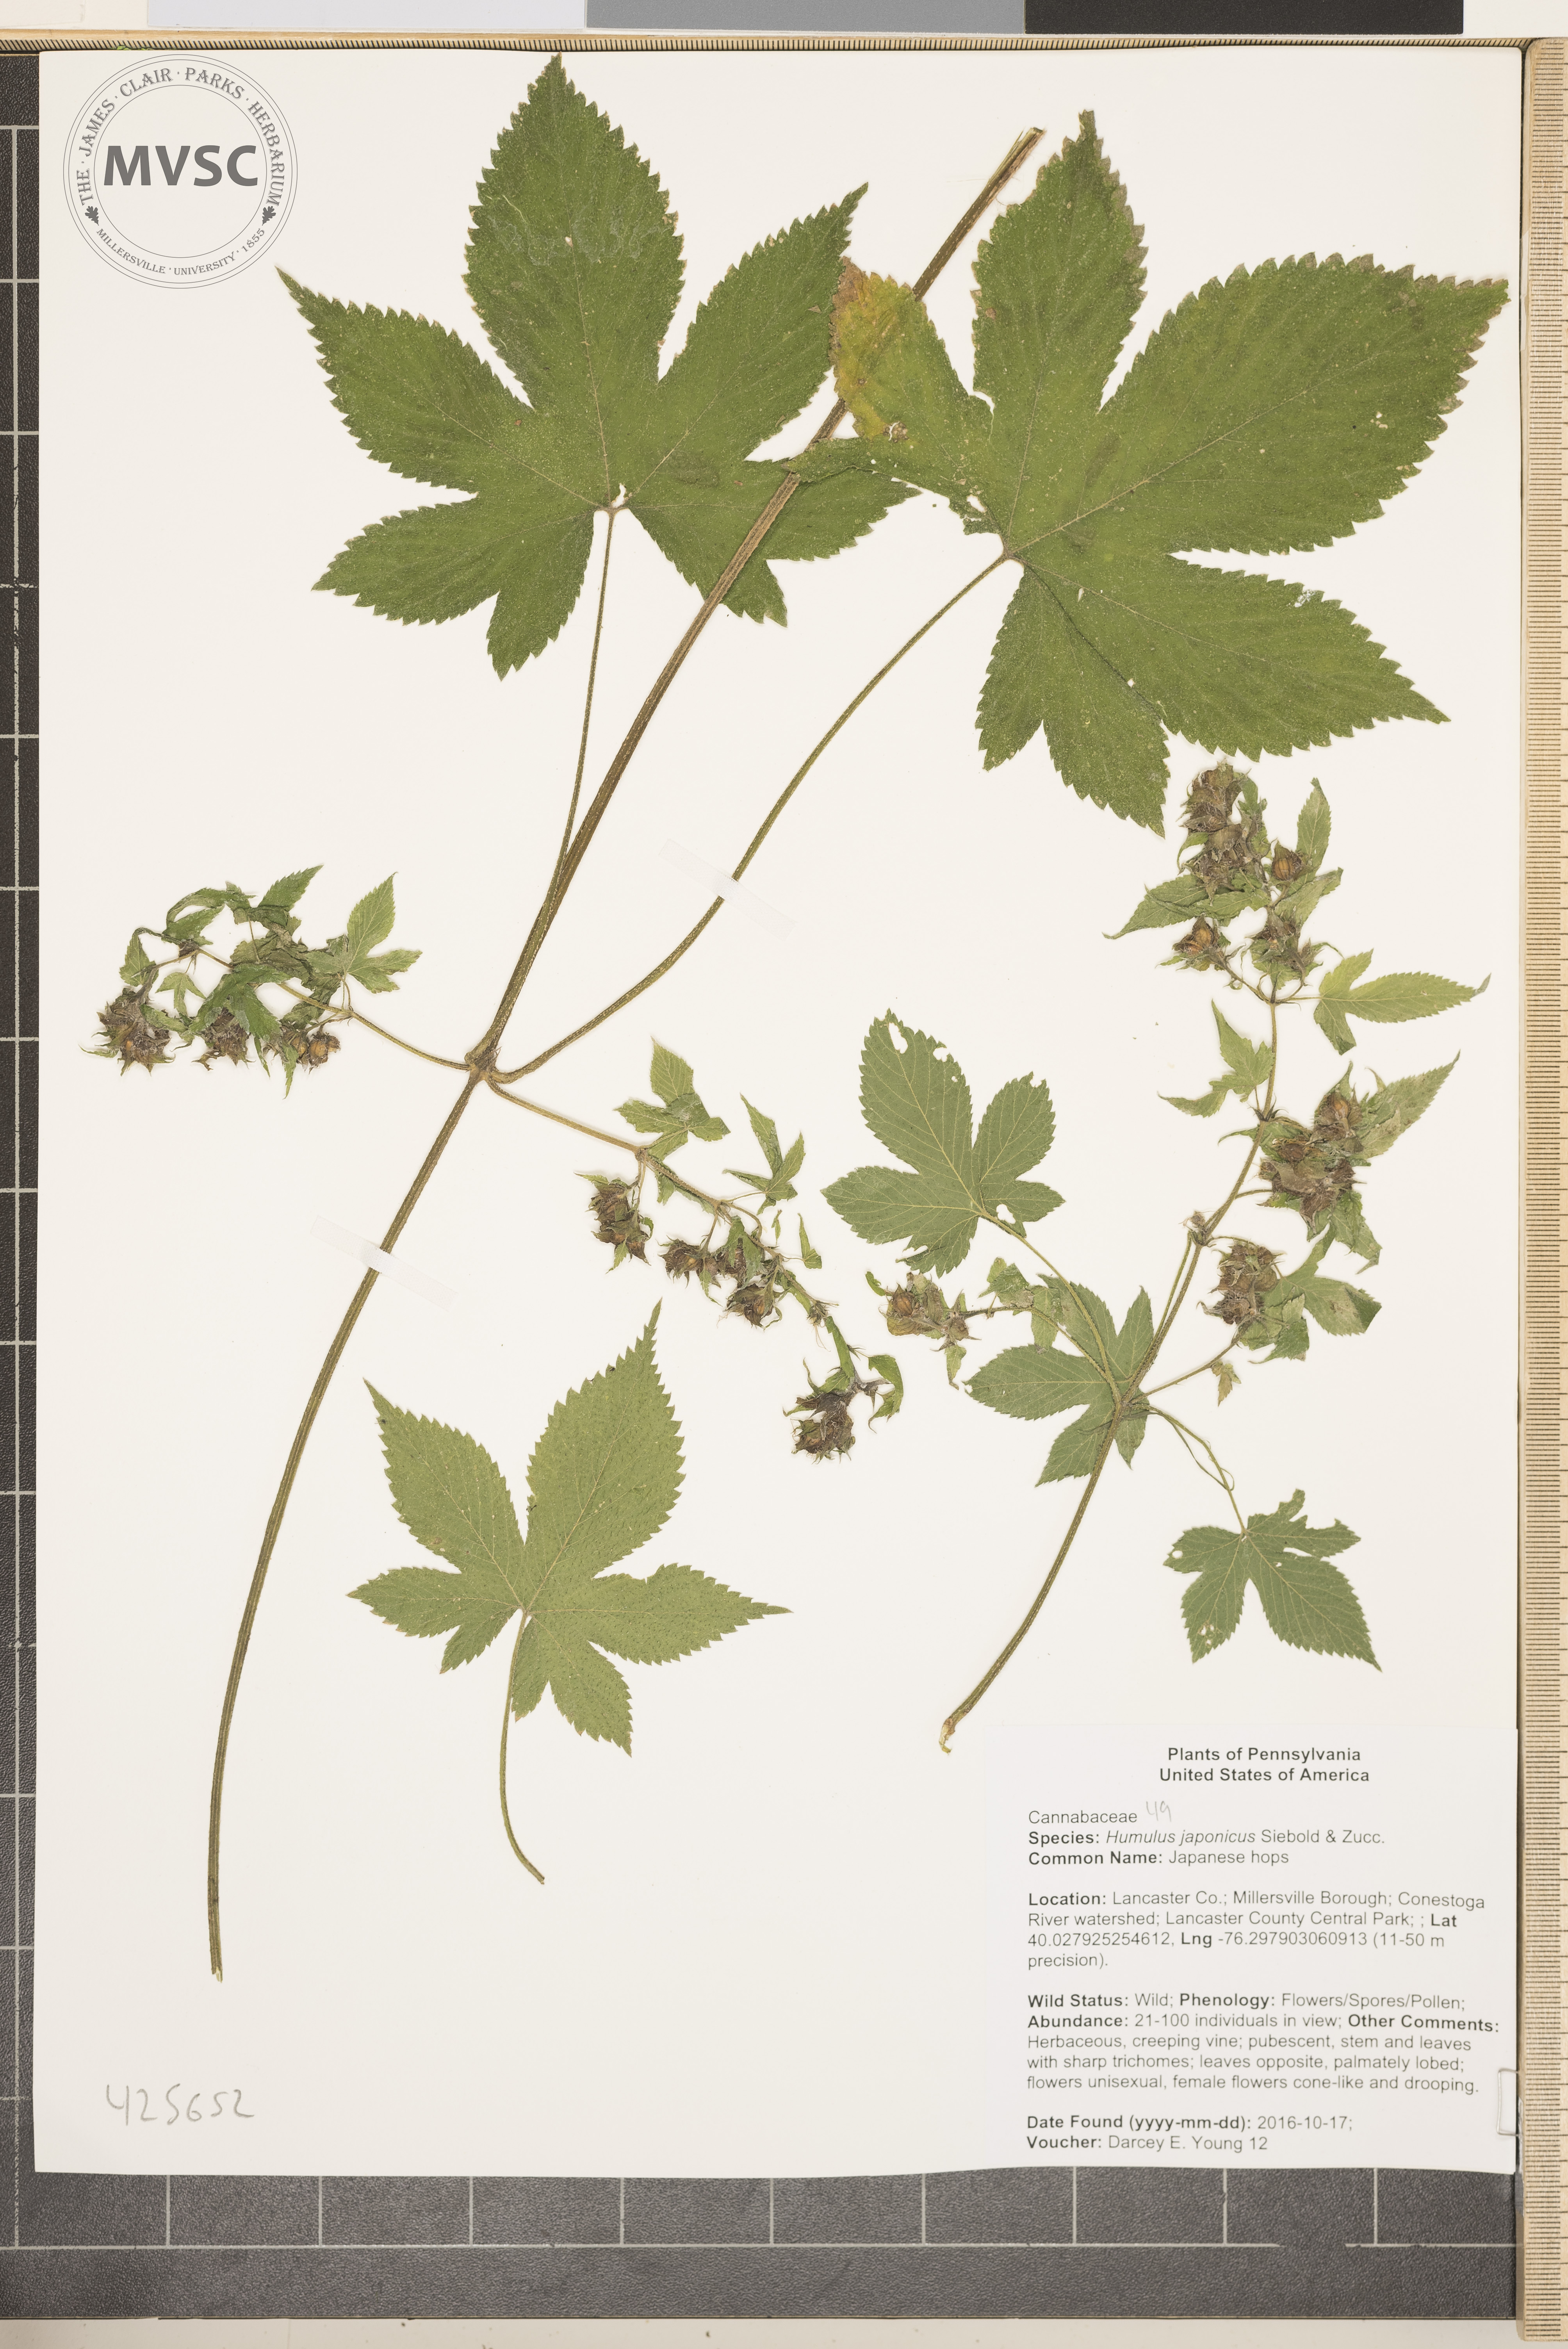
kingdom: Plantae
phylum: Tracheophyta
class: Magnoliopsida
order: Rosales
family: Cannabaceae
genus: Humulus
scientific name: Humulus scandens
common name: Japanese hops
